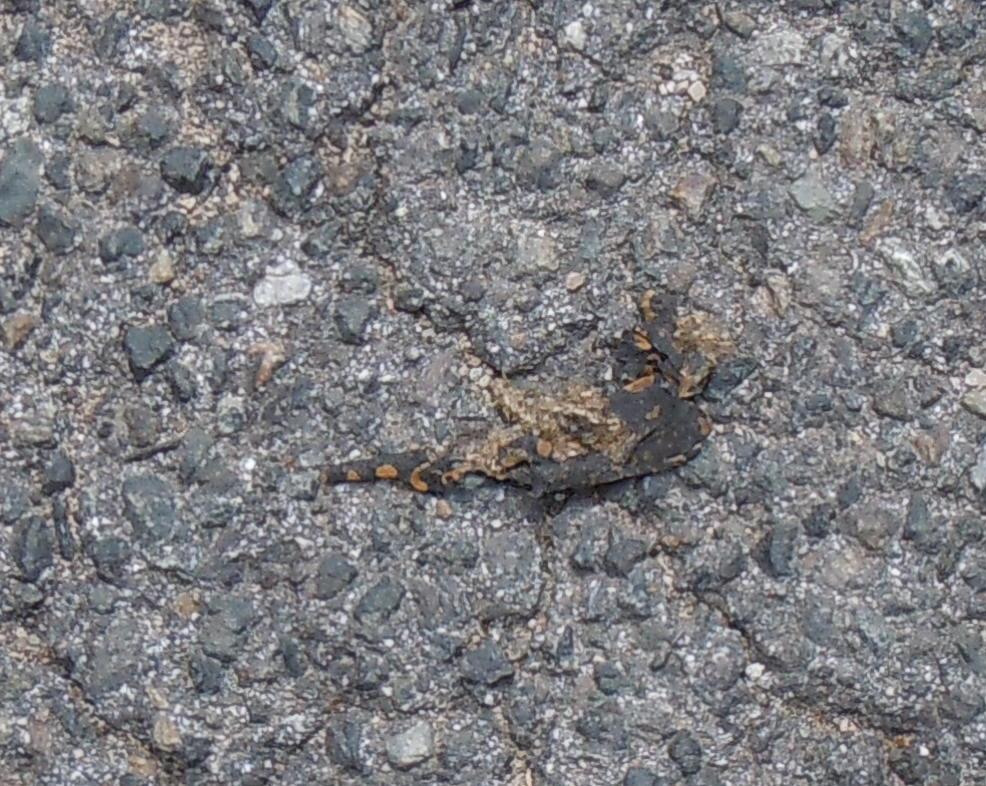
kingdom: Animalia
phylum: Chordata
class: Amphibia
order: Caudata
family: Salamandridae
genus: Salamandra
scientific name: Salamandra salamandra
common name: Fire salamander
